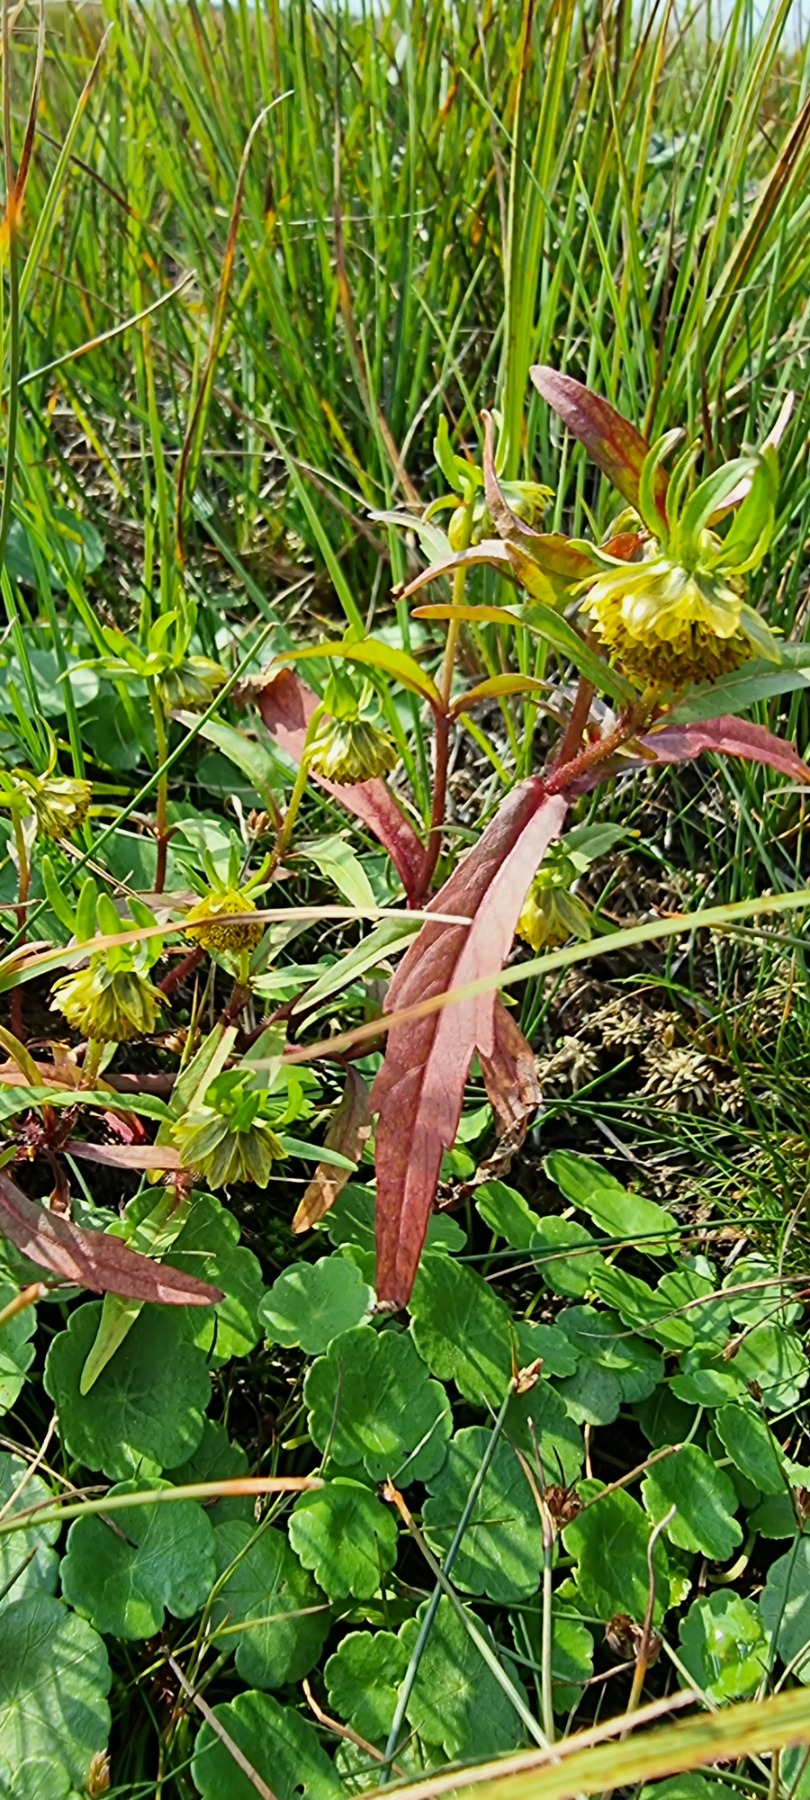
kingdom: Plantae
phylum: Tracheophyta
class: Magnoliopsida
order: Asterales
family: Asteraceae
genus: Bidens
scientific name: Bidens cernua
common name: Nikkende brøndsel
